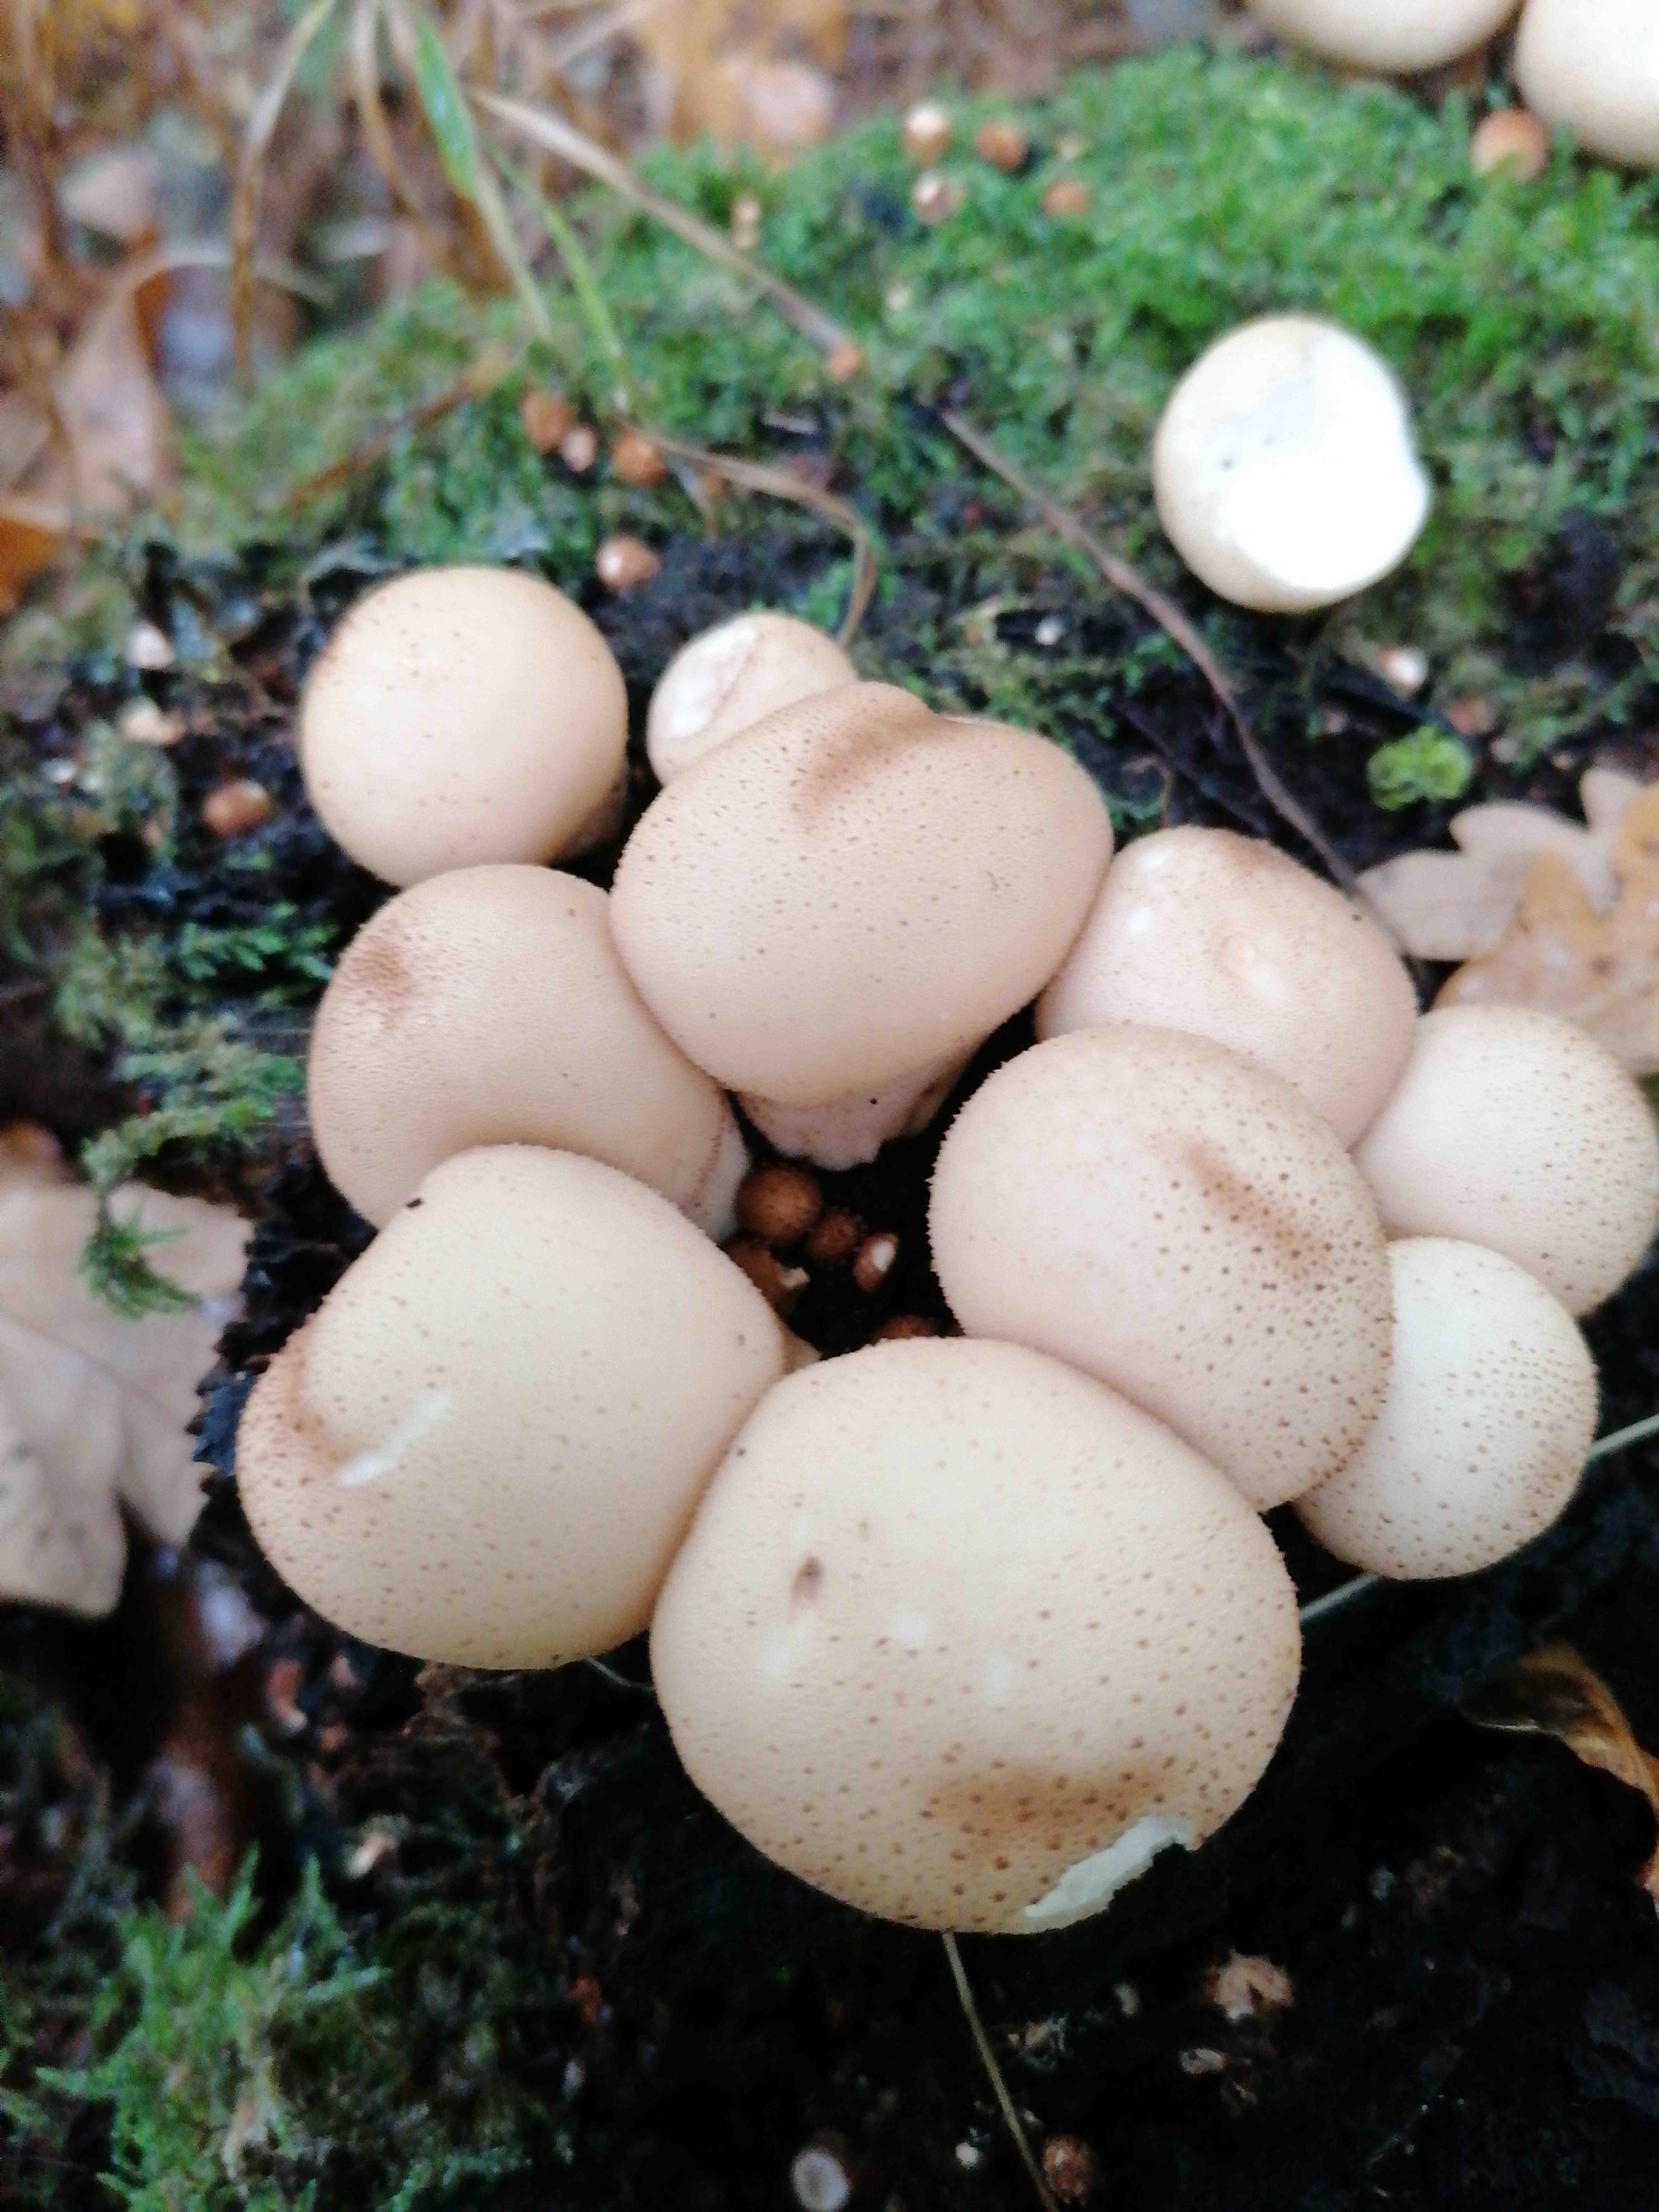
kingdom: Fungi
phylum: Basidiomycota
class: Agaricomycetes
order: Agaricales
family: Lycoperdaceae
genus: Apioperdon
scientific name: Apioperdon pyriforme
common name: pære-støvbold
